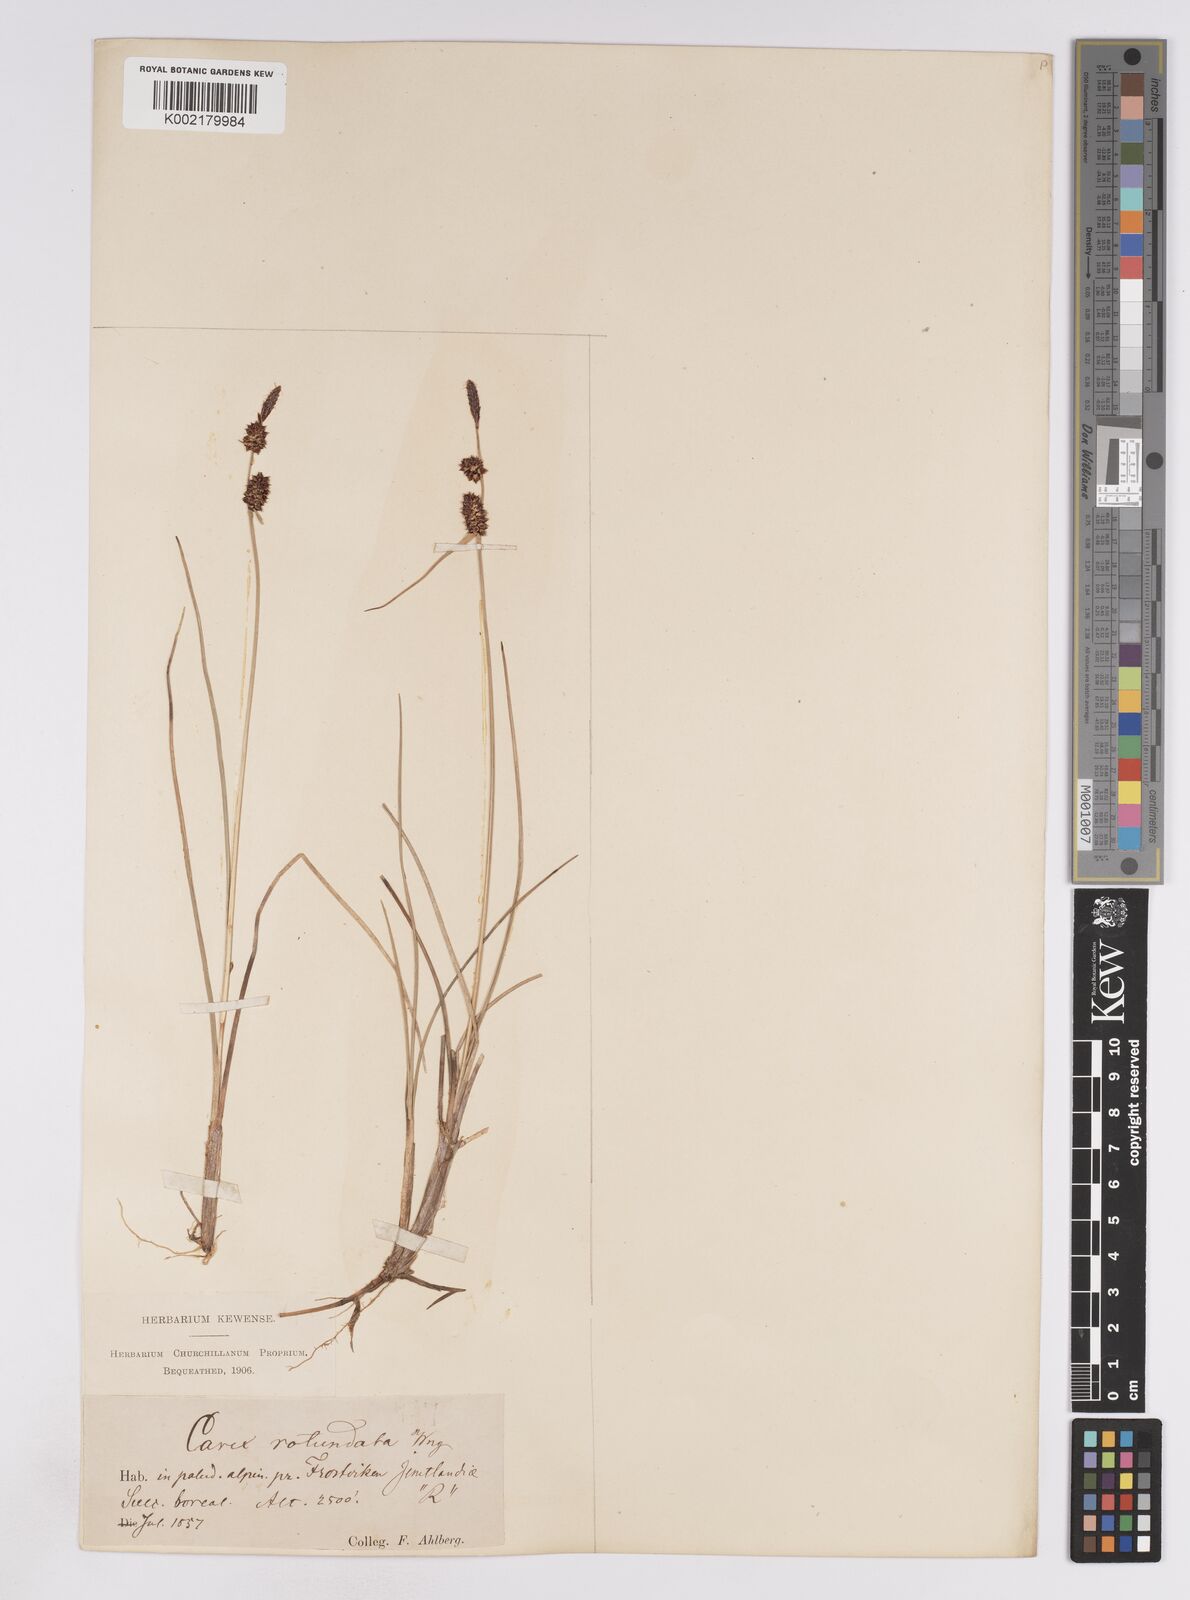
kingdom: Plantae
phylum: Tracheophyta
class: Liliopsida
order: Poales
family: Cyperaceae
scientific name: Cyperaceae
